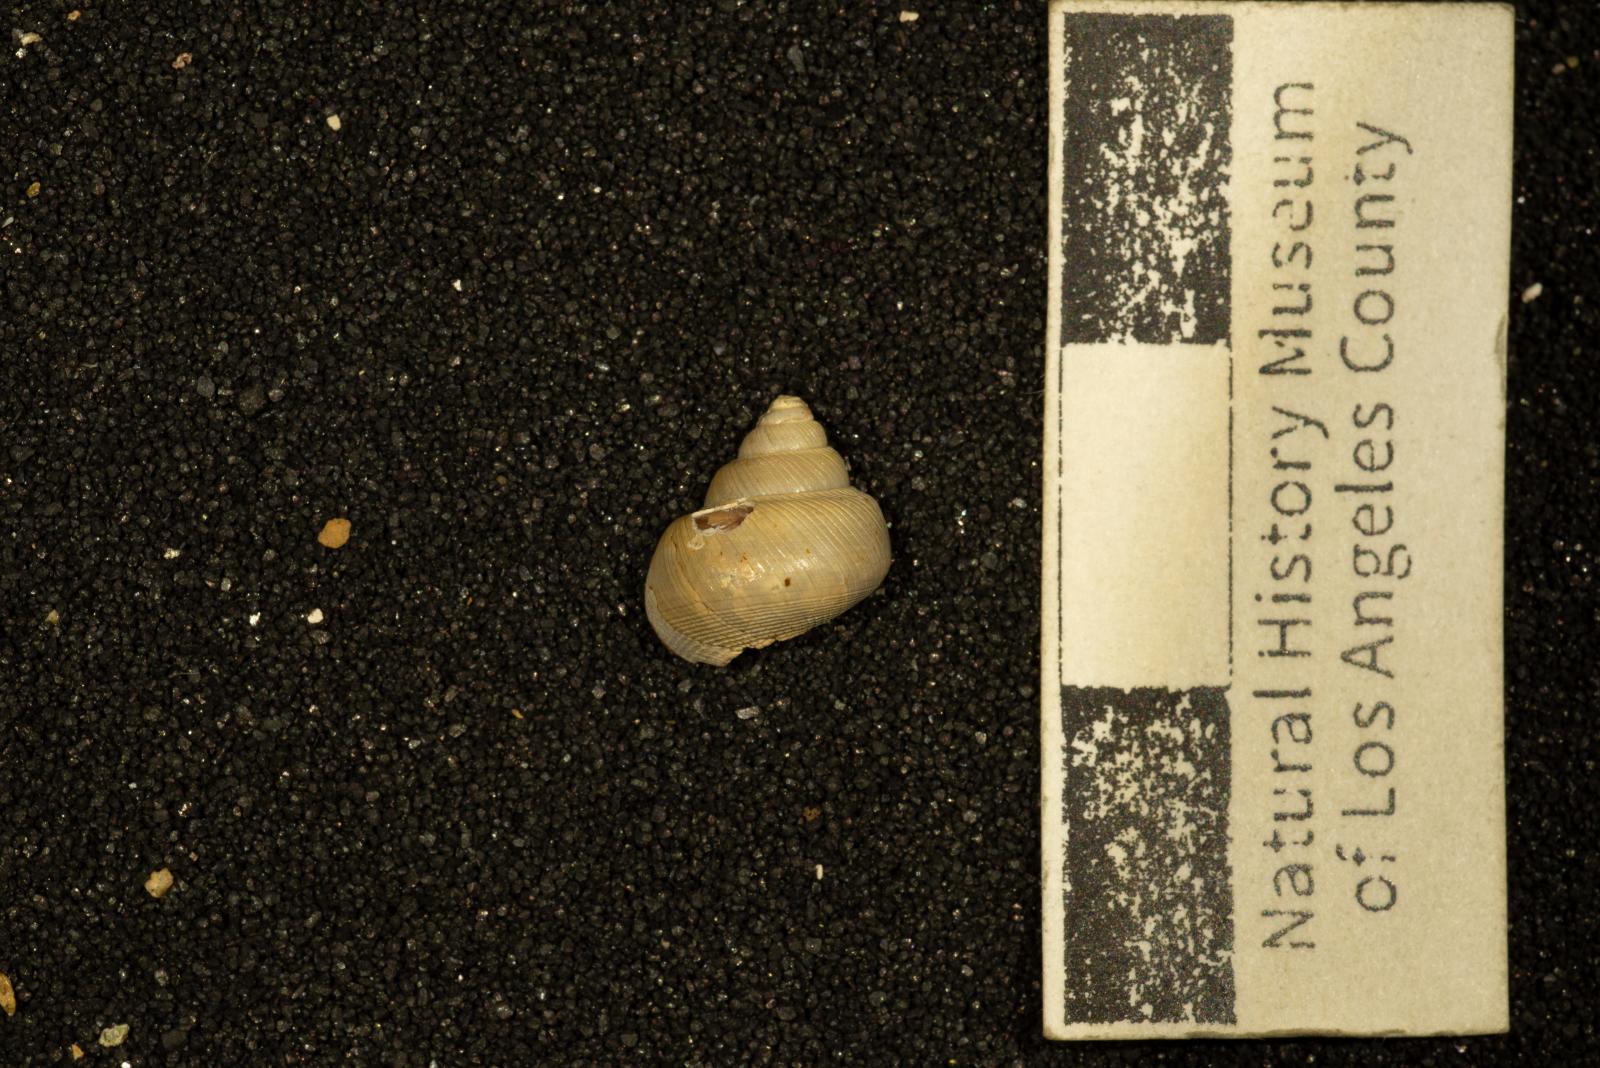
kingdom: Animalia
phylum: Mollusca
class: Gastropoda
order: Trochida
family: Turbinidae
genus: Igonoia
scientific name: Igonoia
